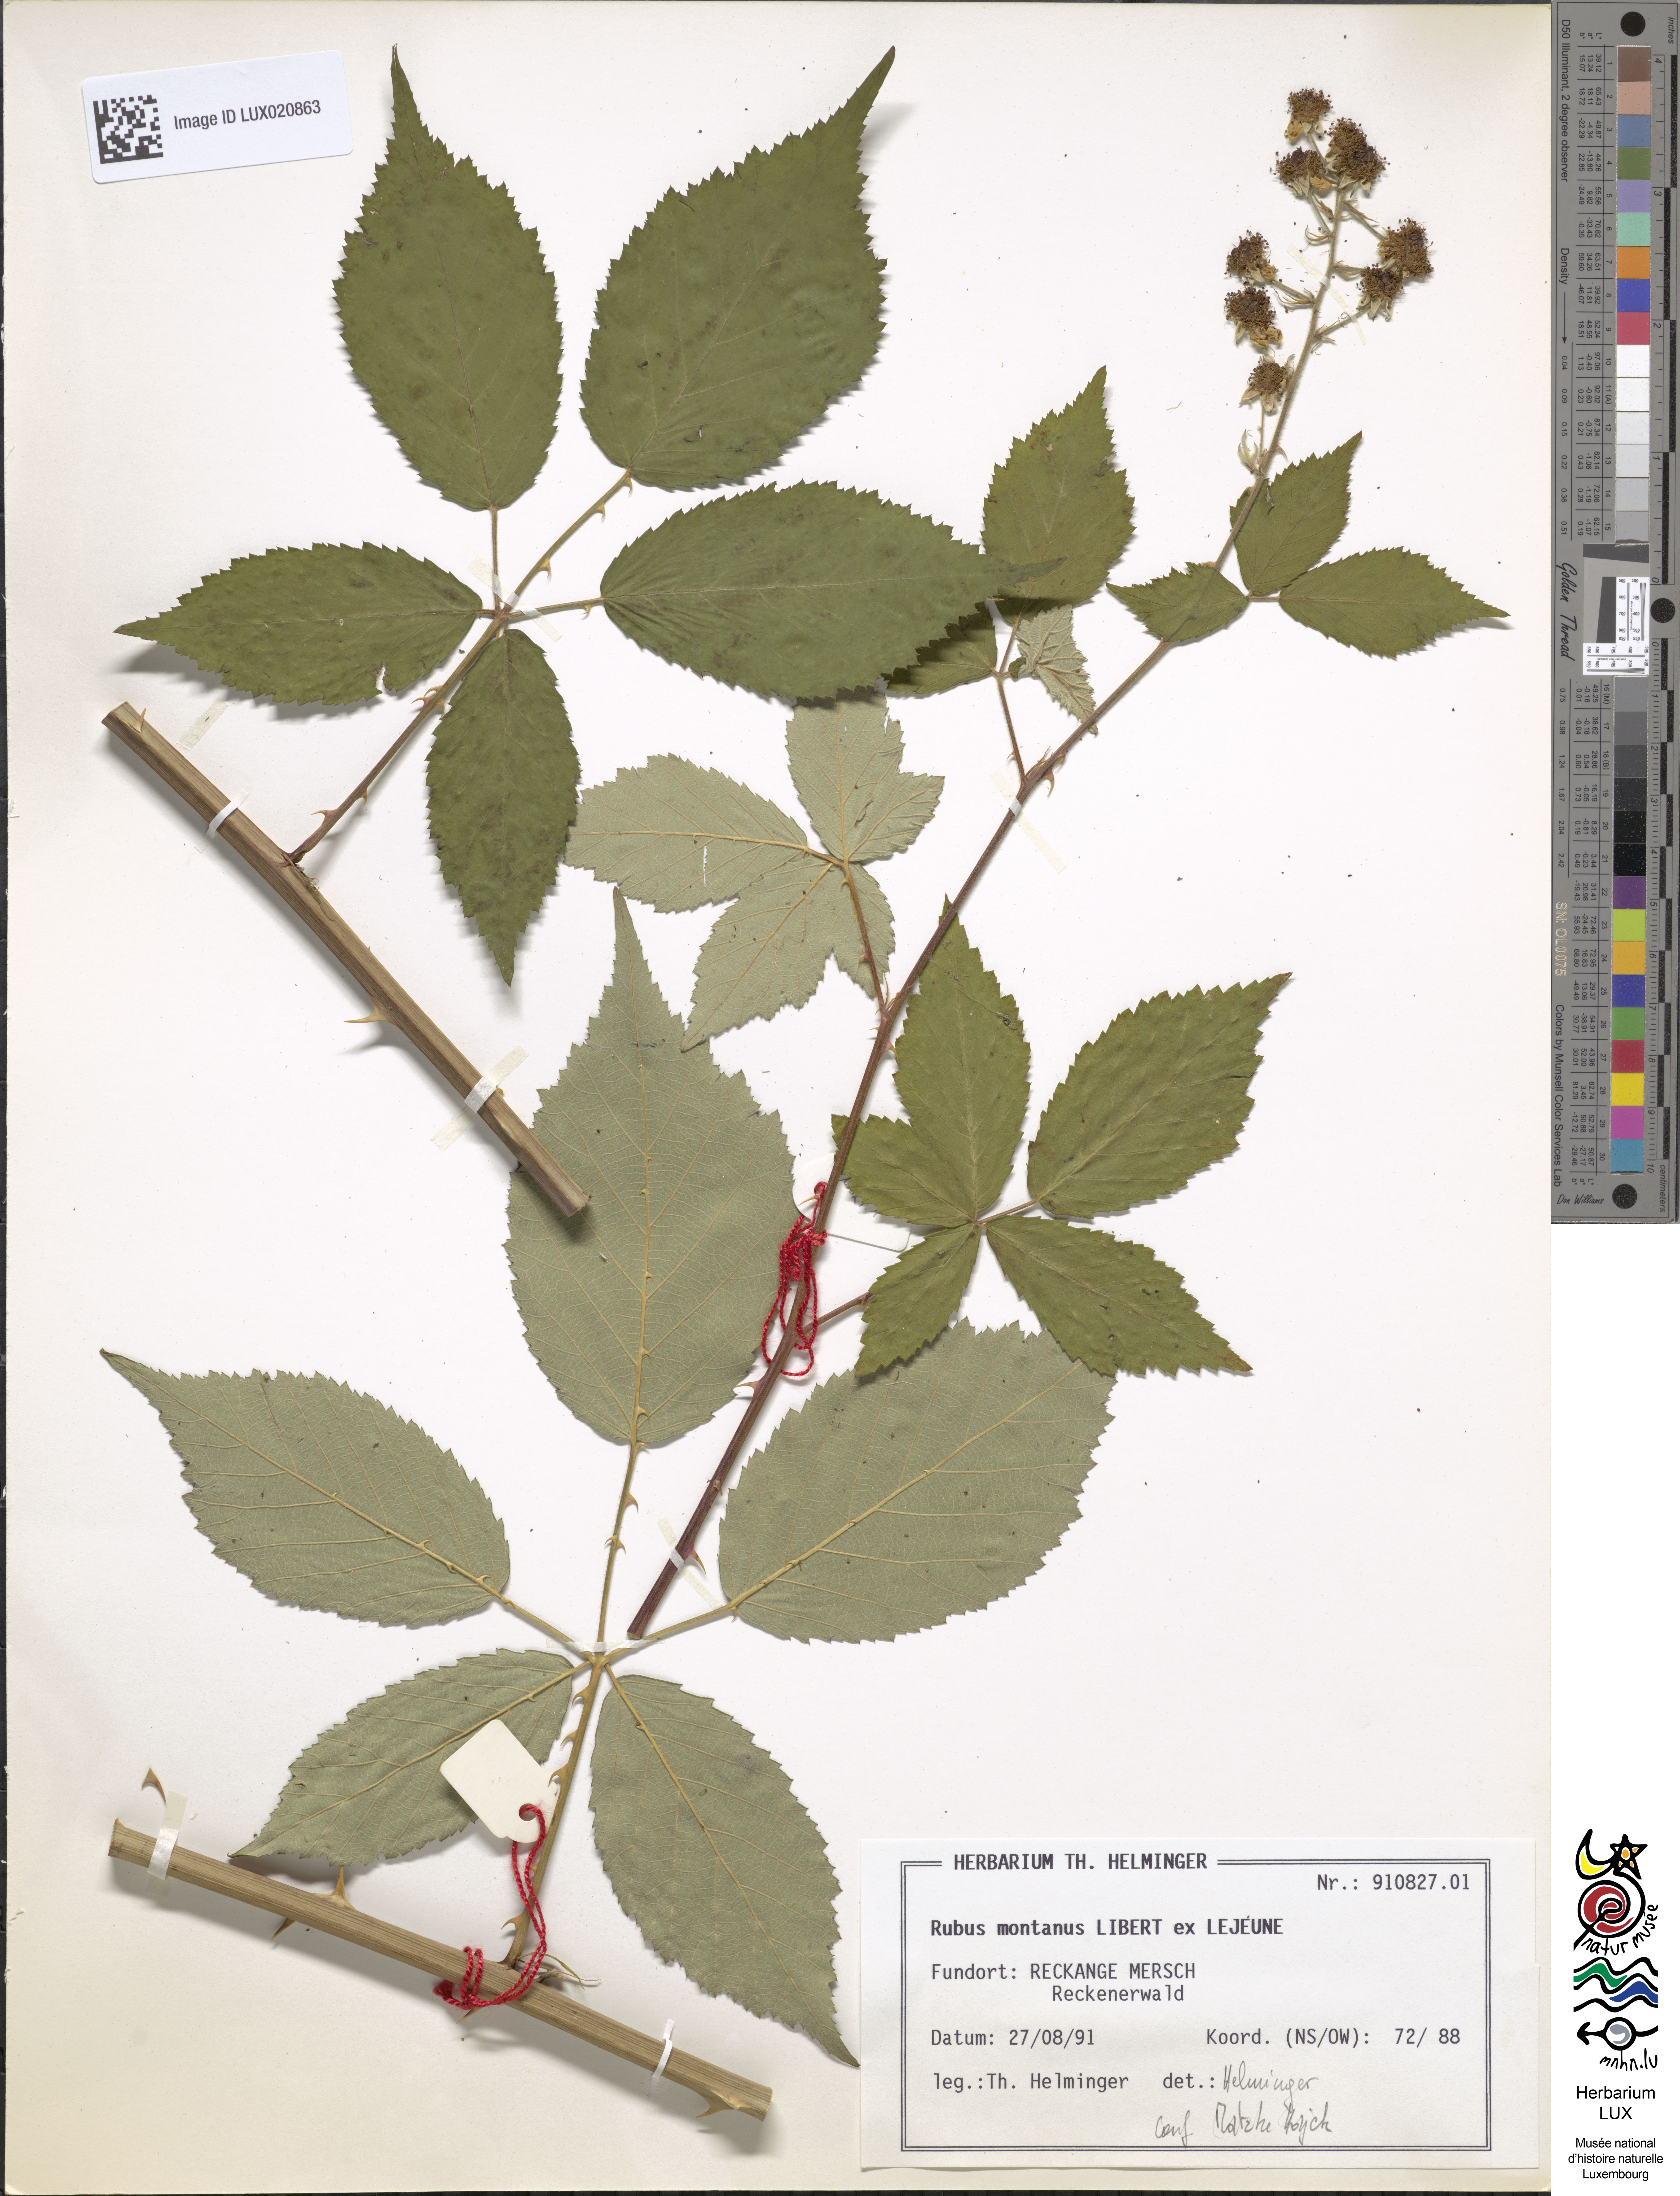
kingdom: Plantae
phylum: Tracheophyta
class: Magnoliopsida
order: Rosales
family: Rosaceae
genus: Rubus
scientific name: Rubus montanus
